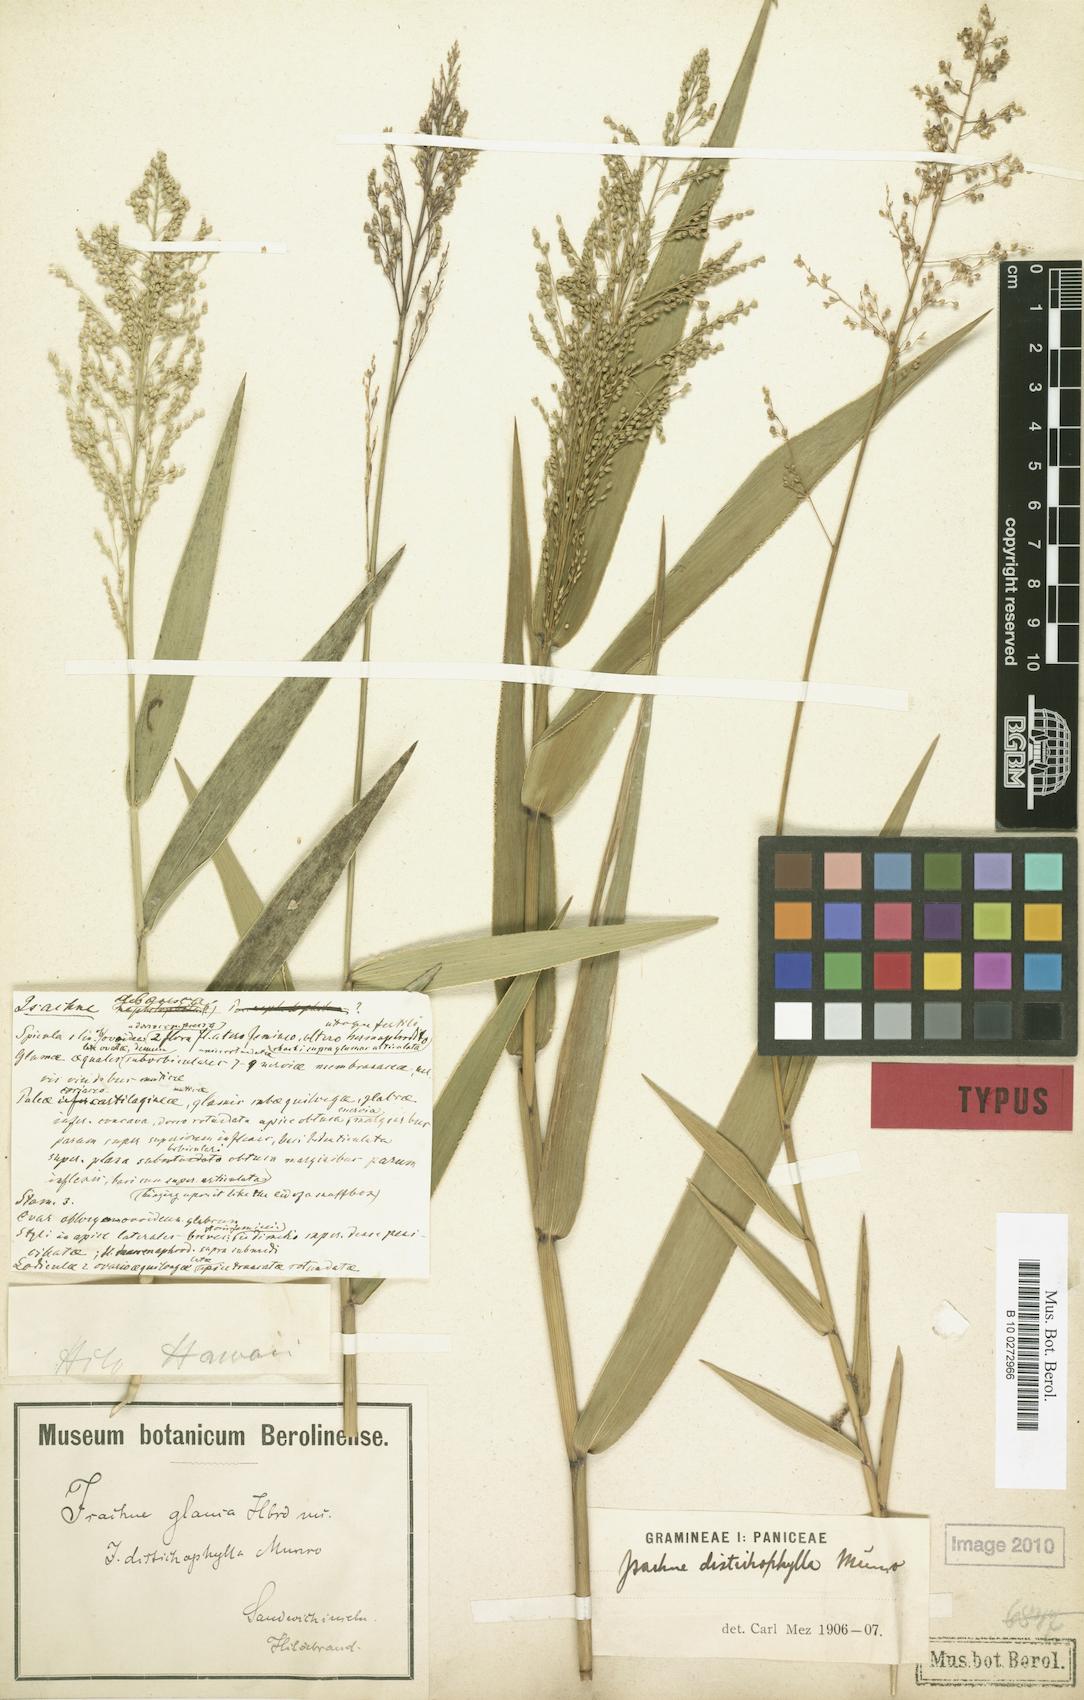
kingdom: Plantae
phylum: Tracheophyta
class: Liliopsida
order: Poales
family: Poaceae
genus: Isachne
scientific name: Isachne distichophylla
